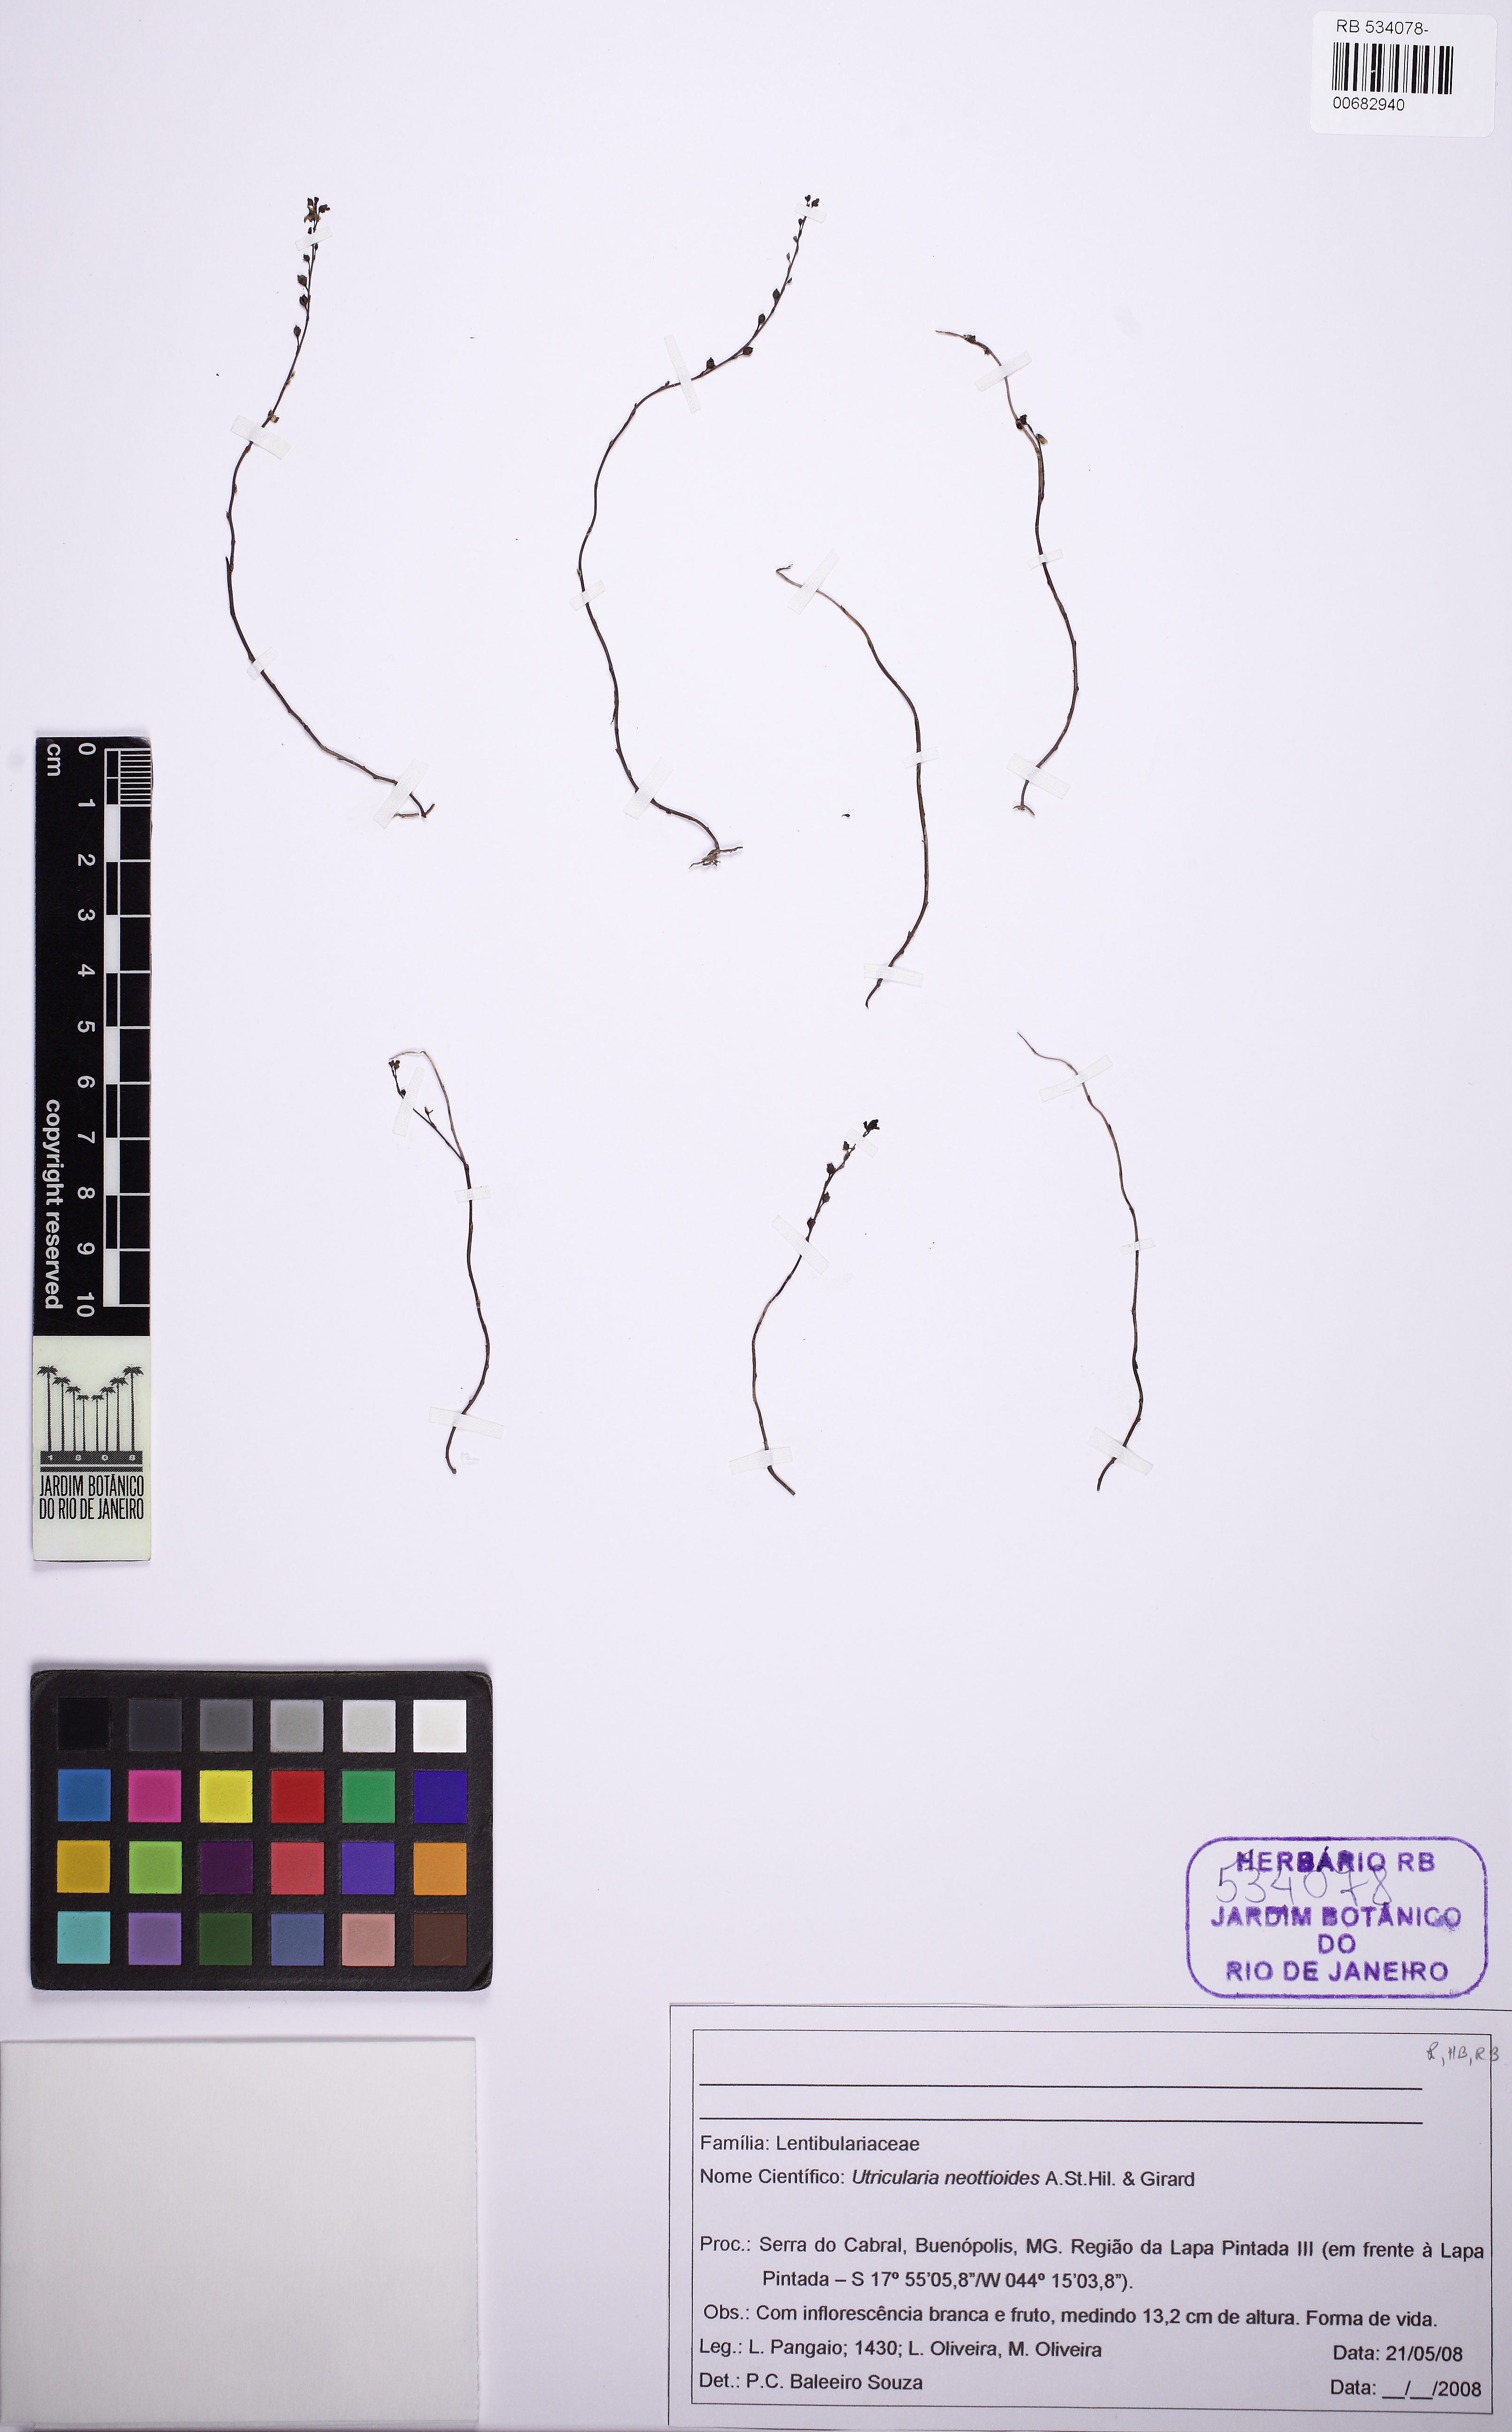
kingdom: Plantae
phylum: Tracheophyta
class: Magnoliopsida
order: Lamiales
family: Lentibulariaceae
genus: Utricularia
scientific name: Utricularia neottioides
